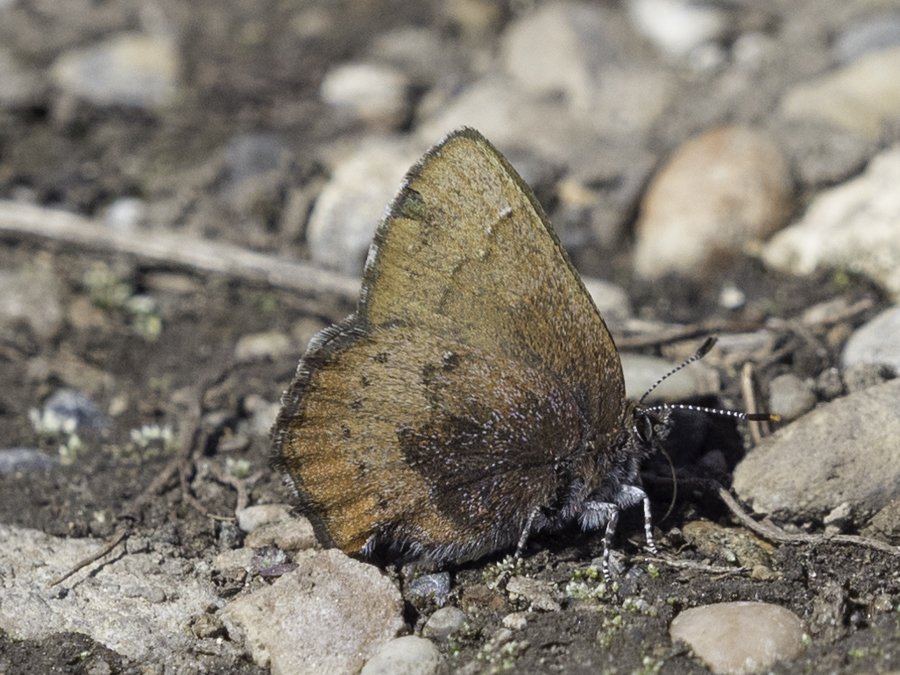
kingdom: Animalia
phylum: Arthropoda
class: Insecta
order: Lepidoptera
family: Lycaenidae
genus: Incisalia
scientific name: Incisalia irioides
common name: Brown Elfin
